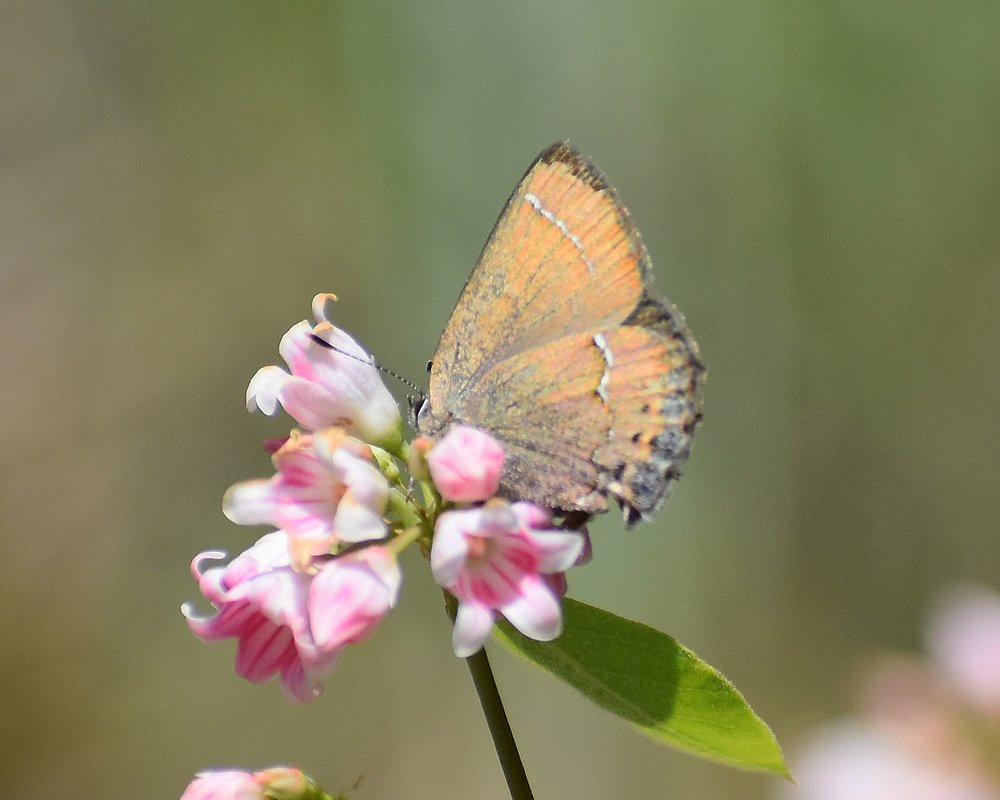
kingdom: Animalia
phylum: Arthropoda
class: Insecta
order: Lepidoptera
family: Lycaenidae
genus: Mitoura
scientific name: Mitoura nelsoni
